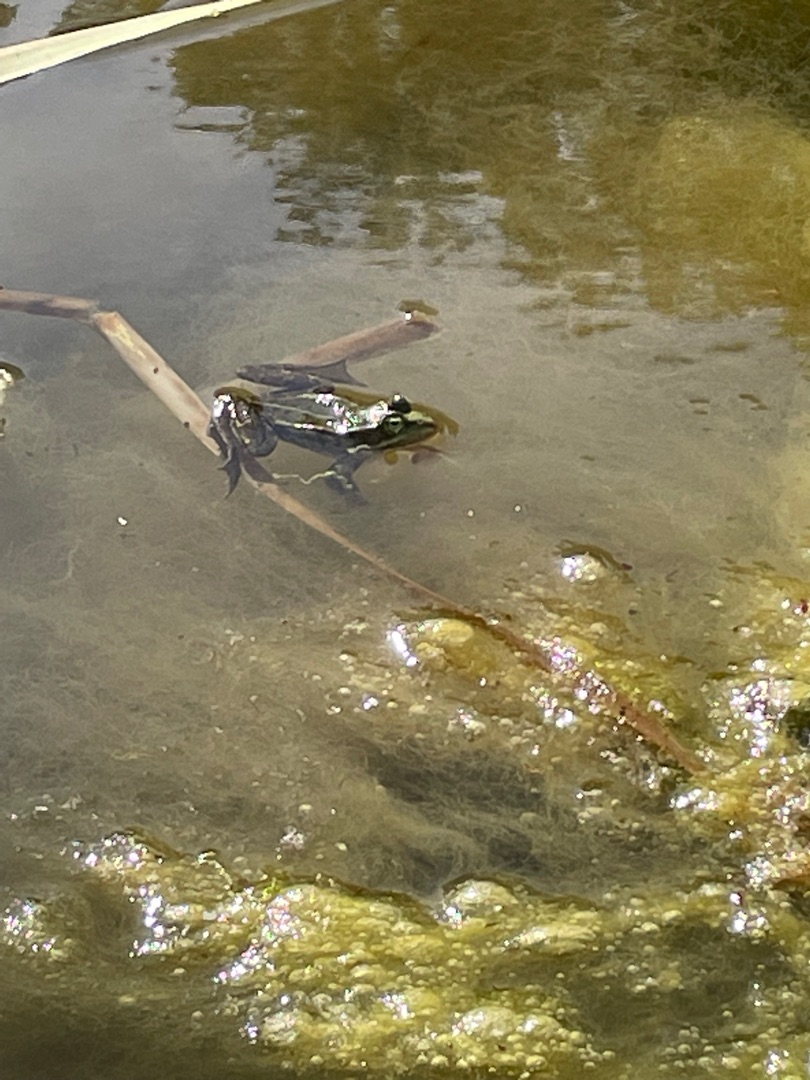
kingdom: Animalia
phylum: Chordata
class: Amphibia
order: Anura
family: Ranidae
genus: Pelophylax
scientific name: Pelophylax lessonae
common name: Grøn frø
